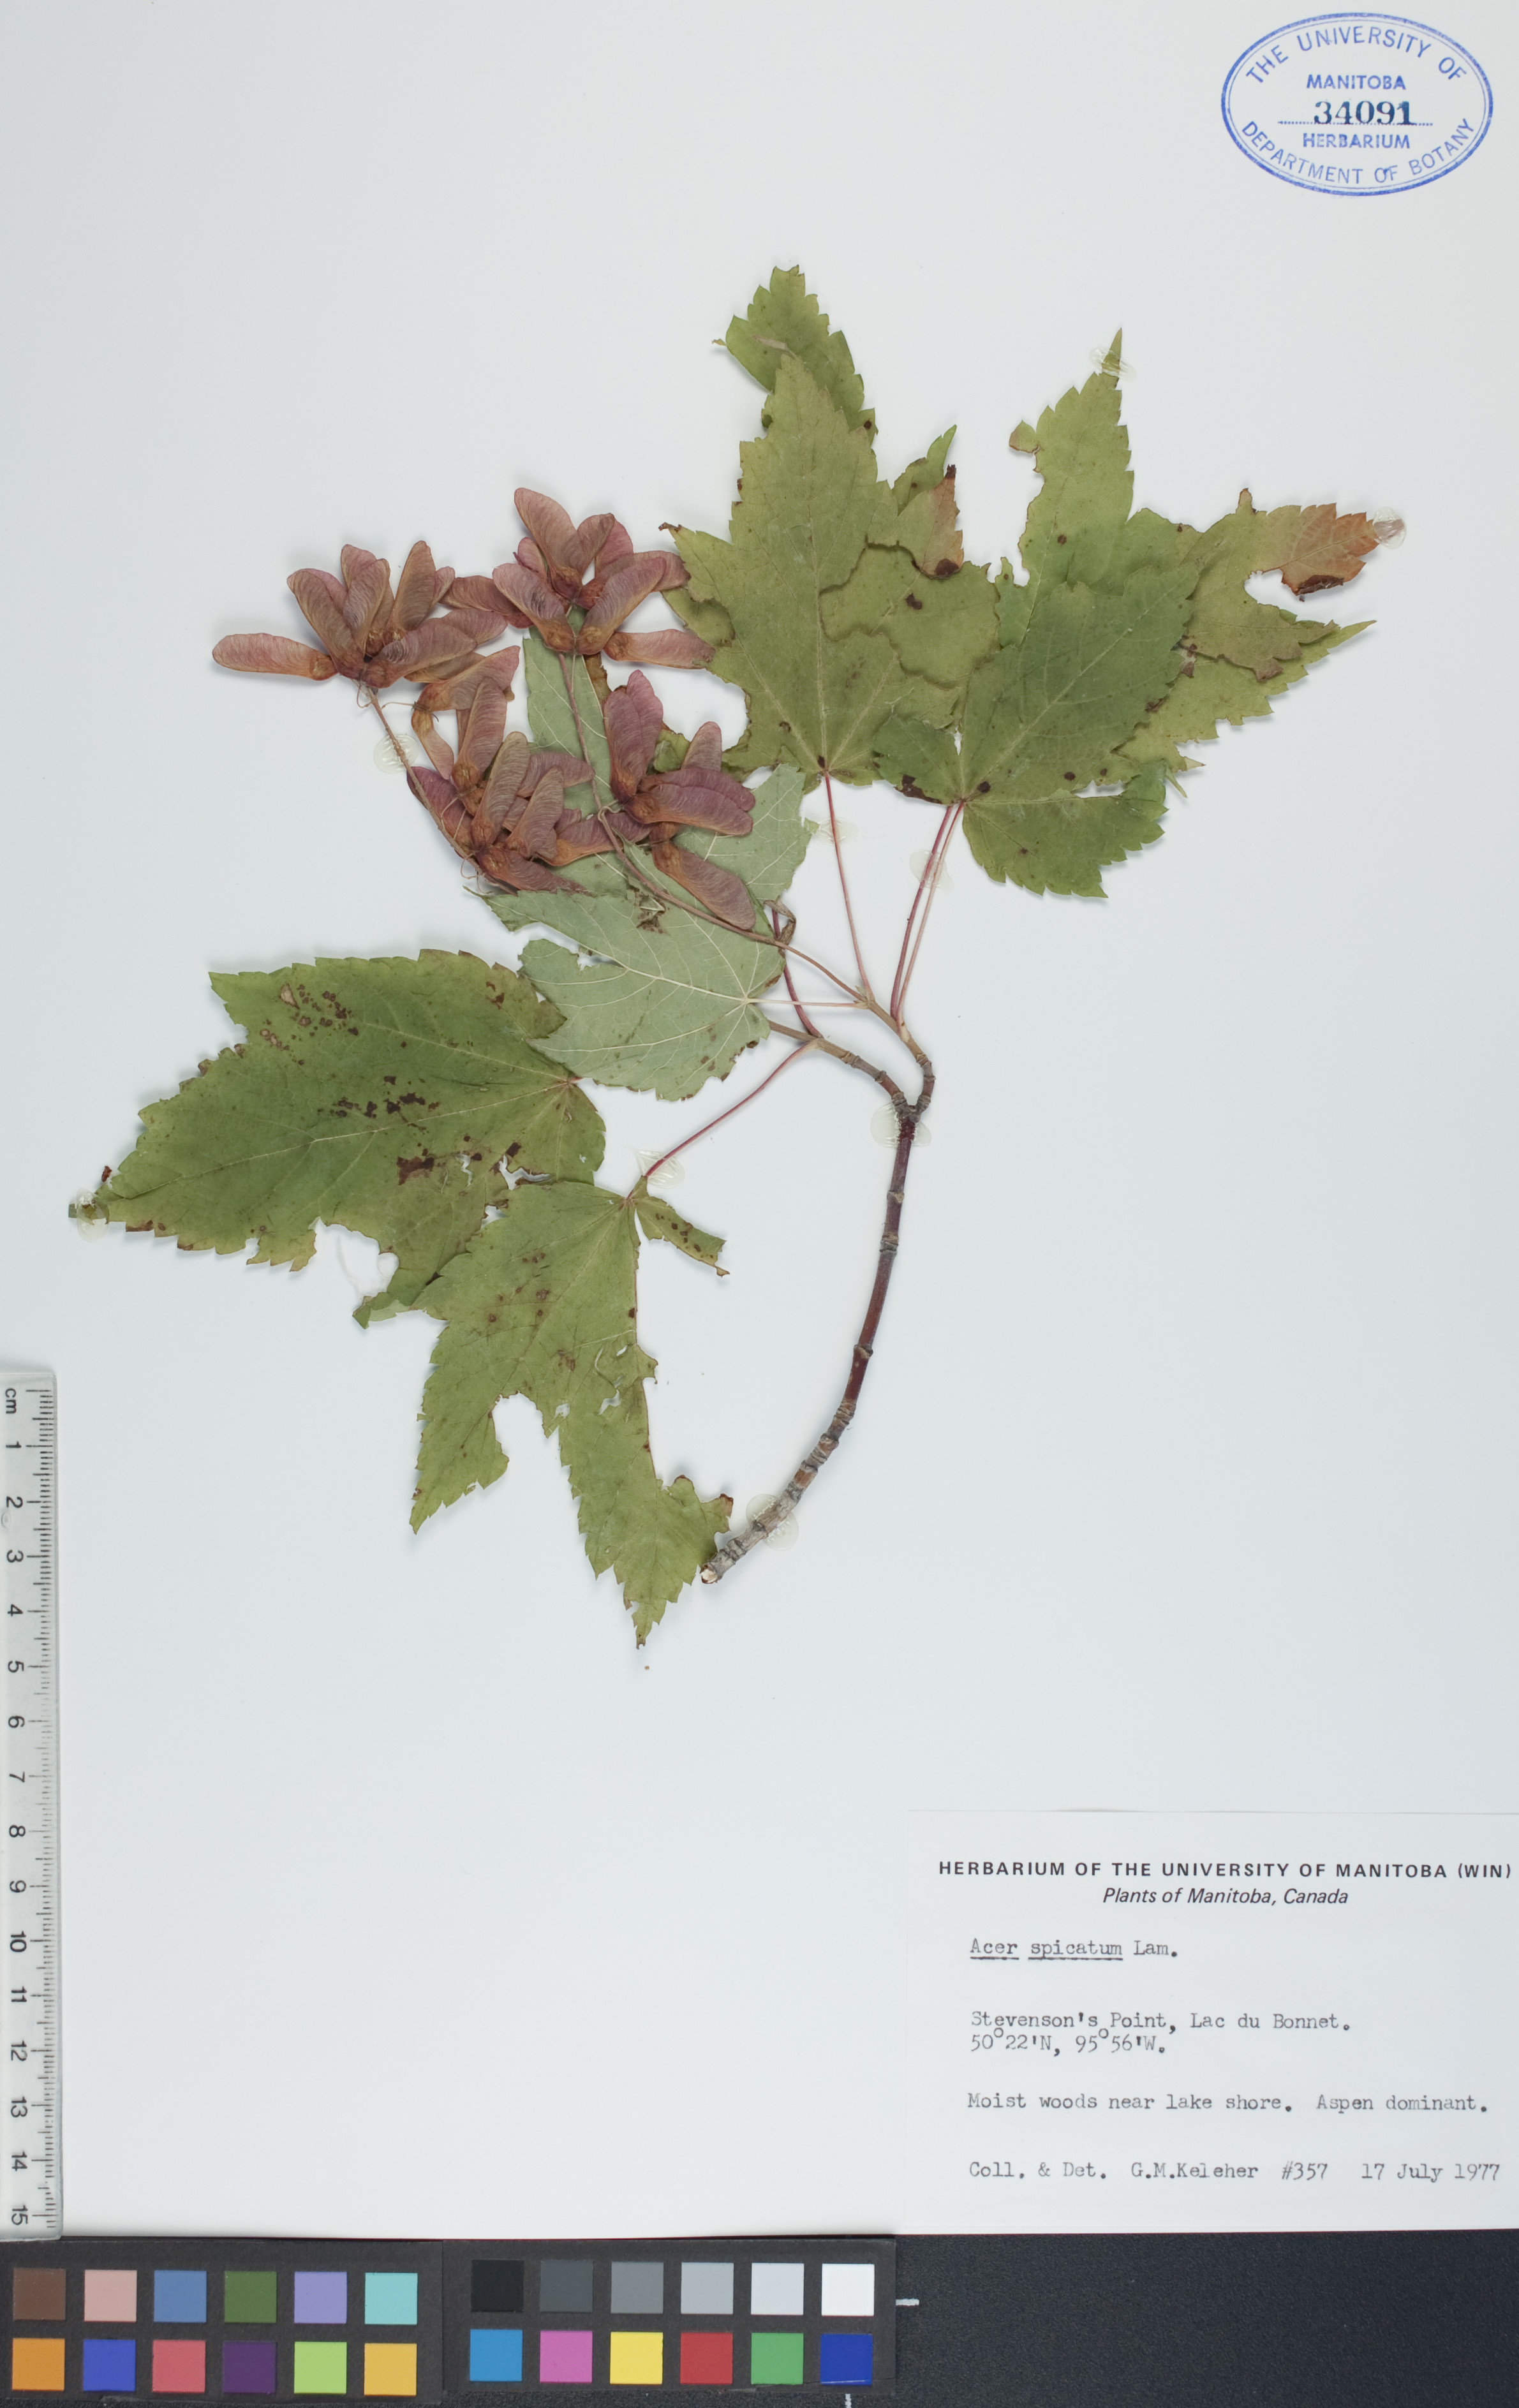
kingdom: Plantae
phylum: Tracheophyta
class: Magnoliopsida
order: Sapindales
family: Sapindaceae
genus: Acer
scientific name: Acer spicatum
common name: Mountain maple
